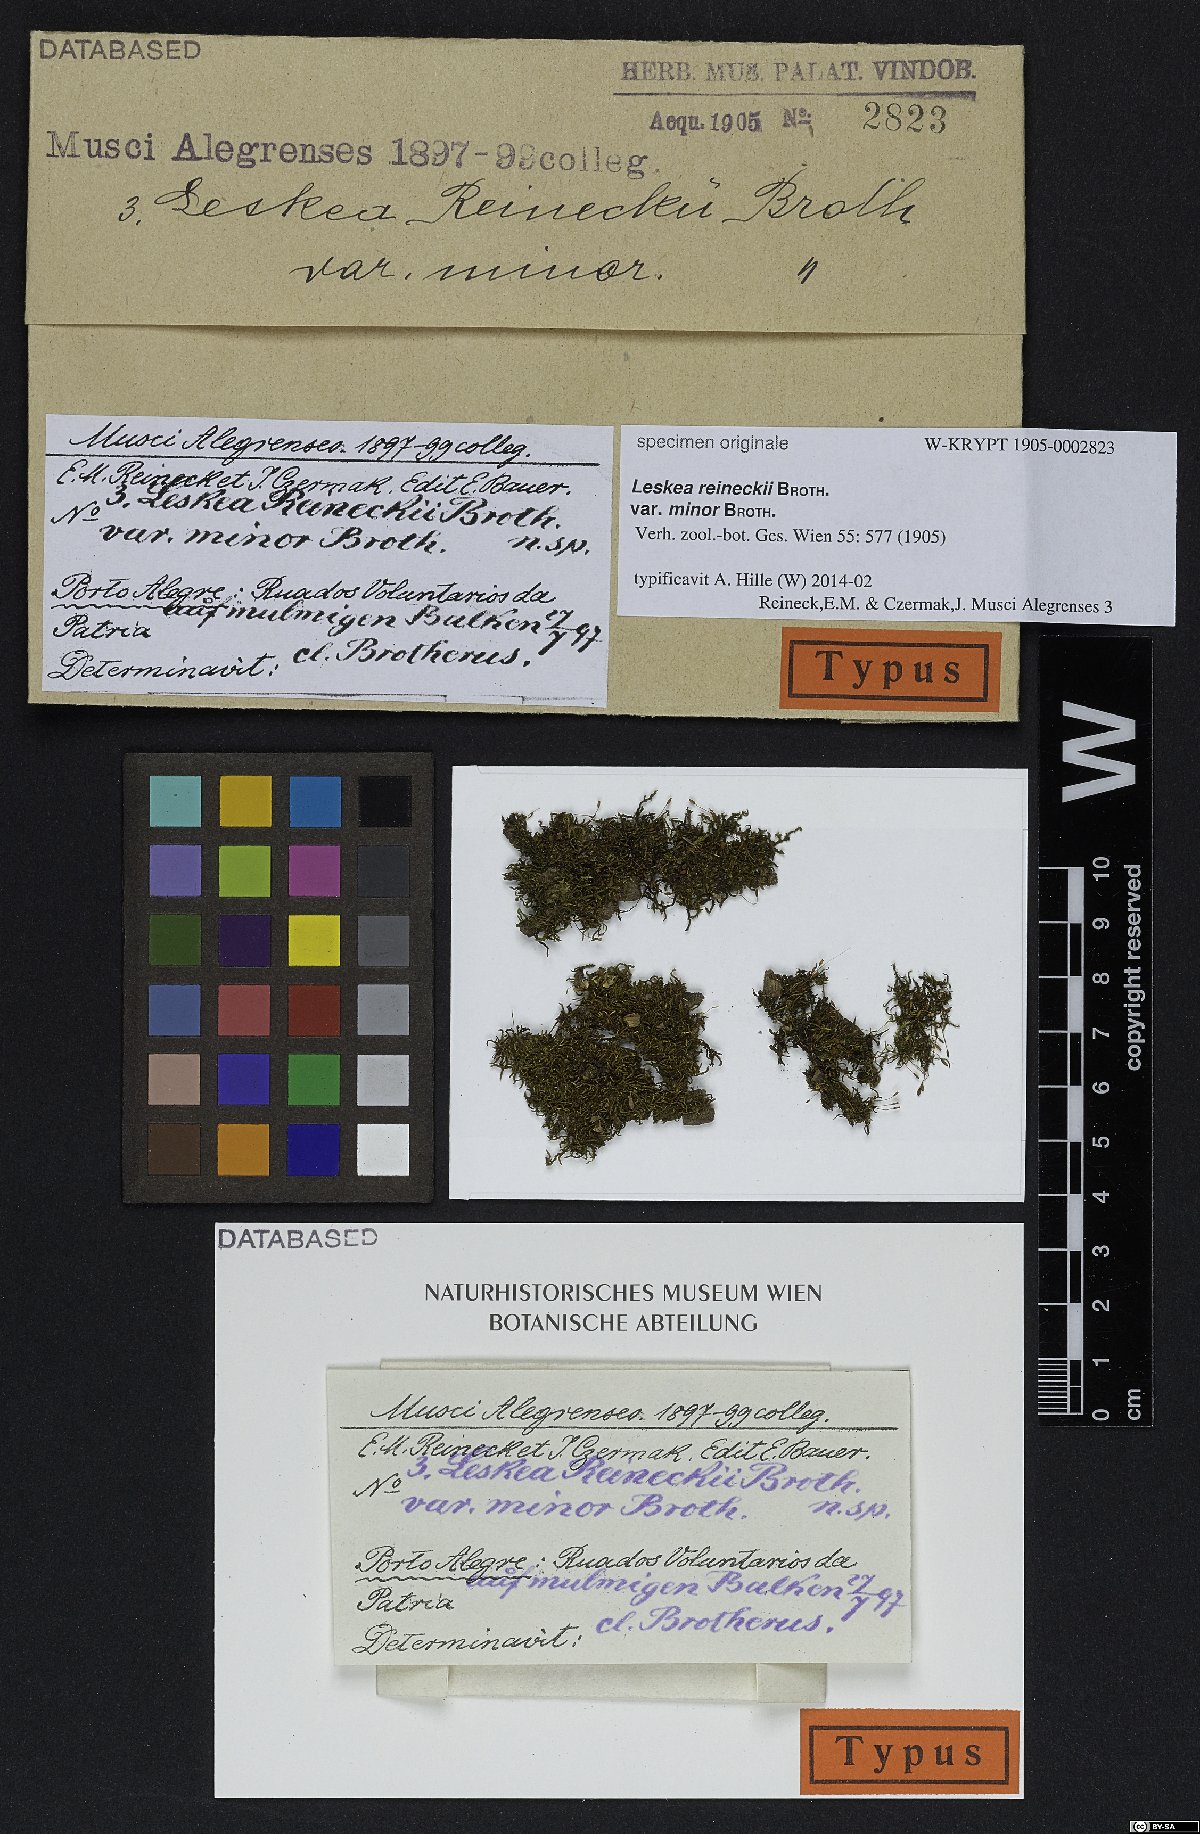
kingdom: Plantae
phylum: Bryophyta
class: Bryopsida
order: Hypnales
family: Leskeaceae
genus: Leskea
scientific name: Leskea reineckii
